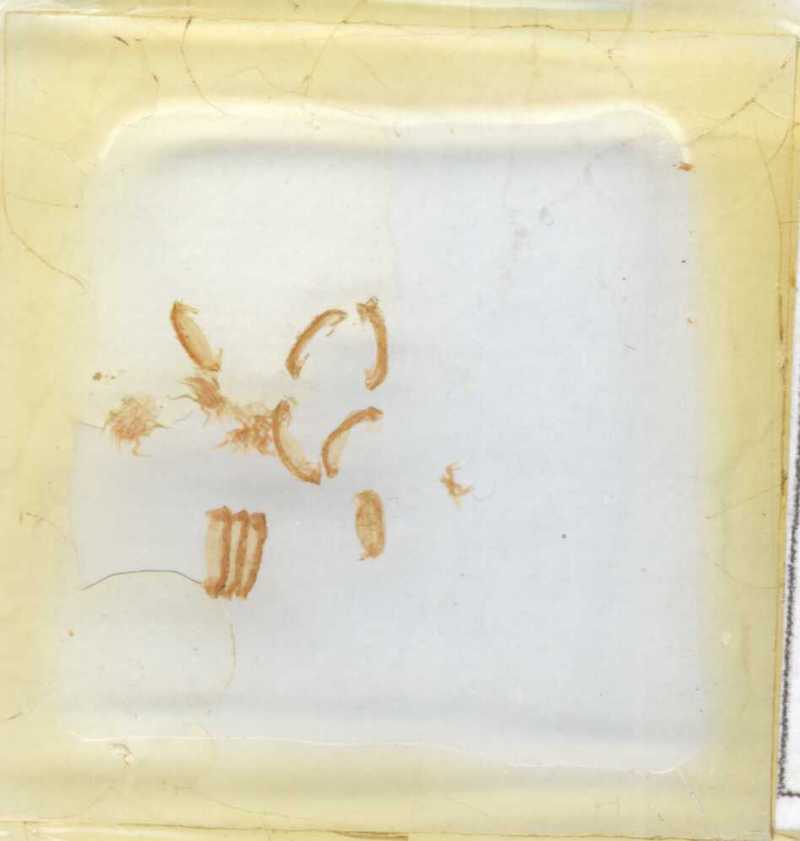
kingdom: Animalia
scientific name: Animalia
